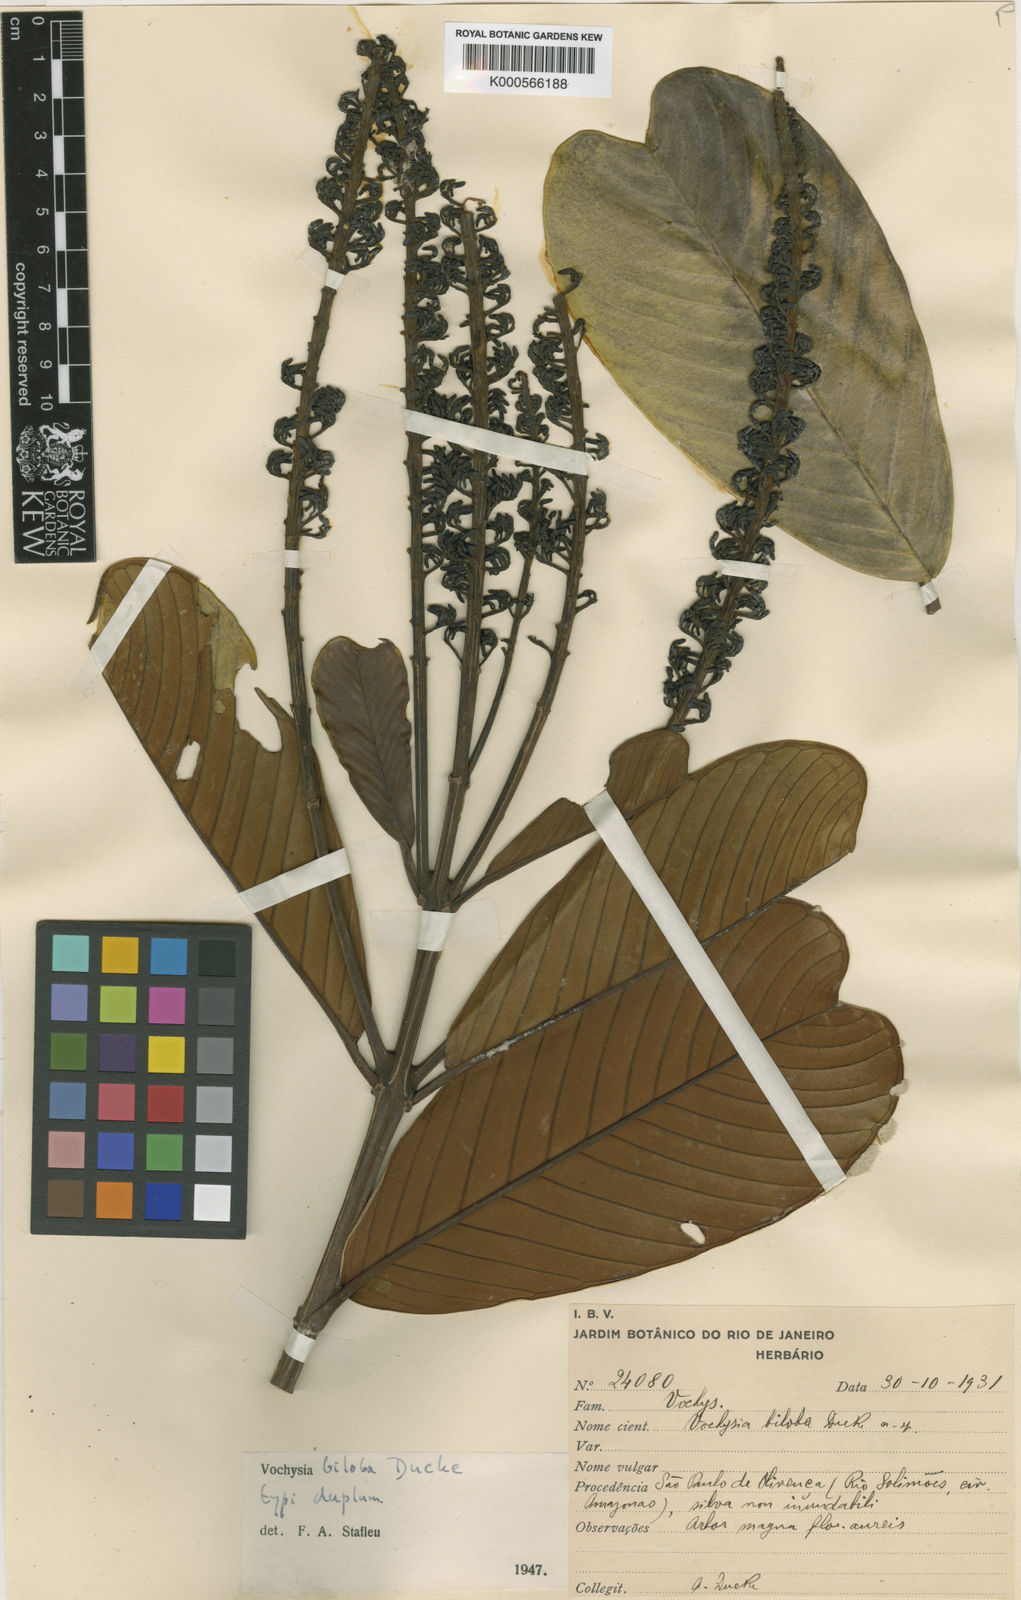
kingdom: Plantae
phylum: Tracheophyta
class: Magnoliopsida
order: Myrtales
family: Vochysiaceae
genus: Vochysia
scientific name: Vochysia biloba
